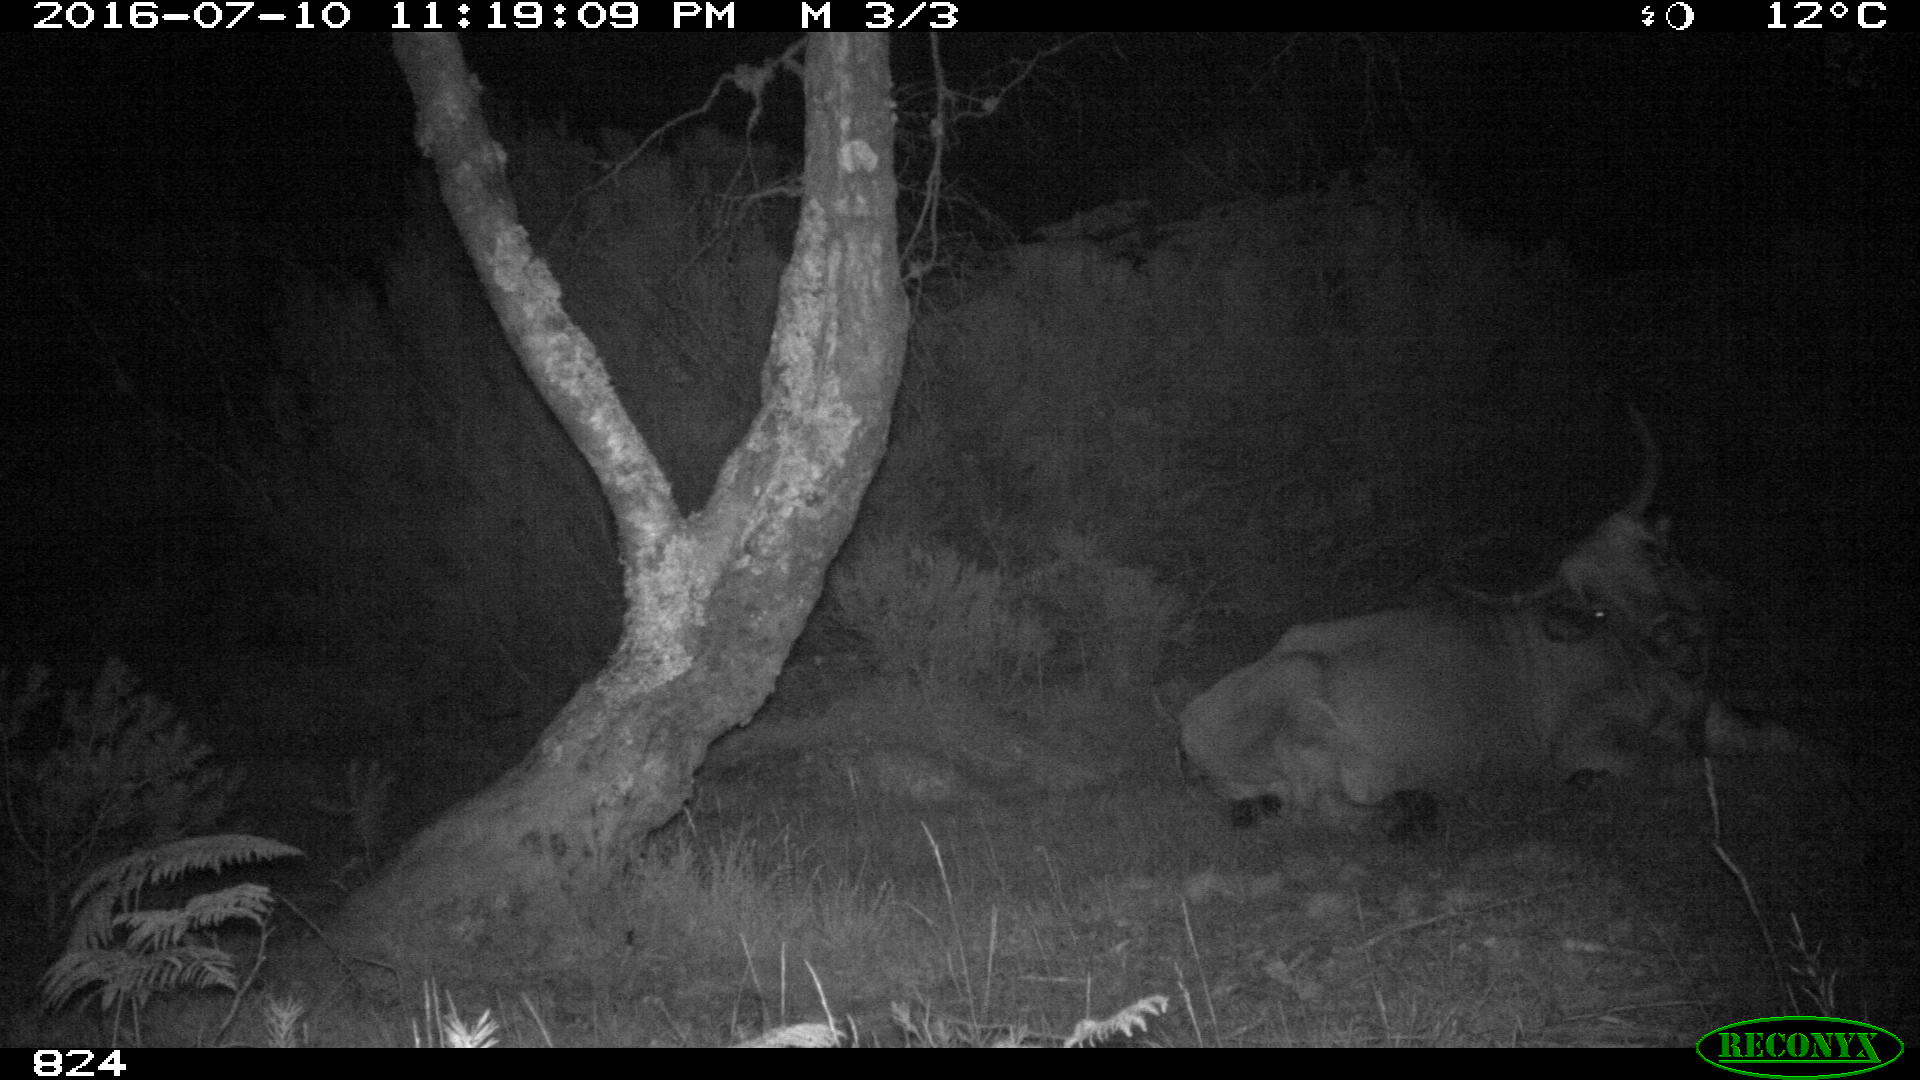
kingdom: Animalia
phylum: Chordata
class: Mammalia
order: Artiodactyla
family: Bovidae
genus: Bos
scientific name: Bos taurus
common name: Domesticated cattle
